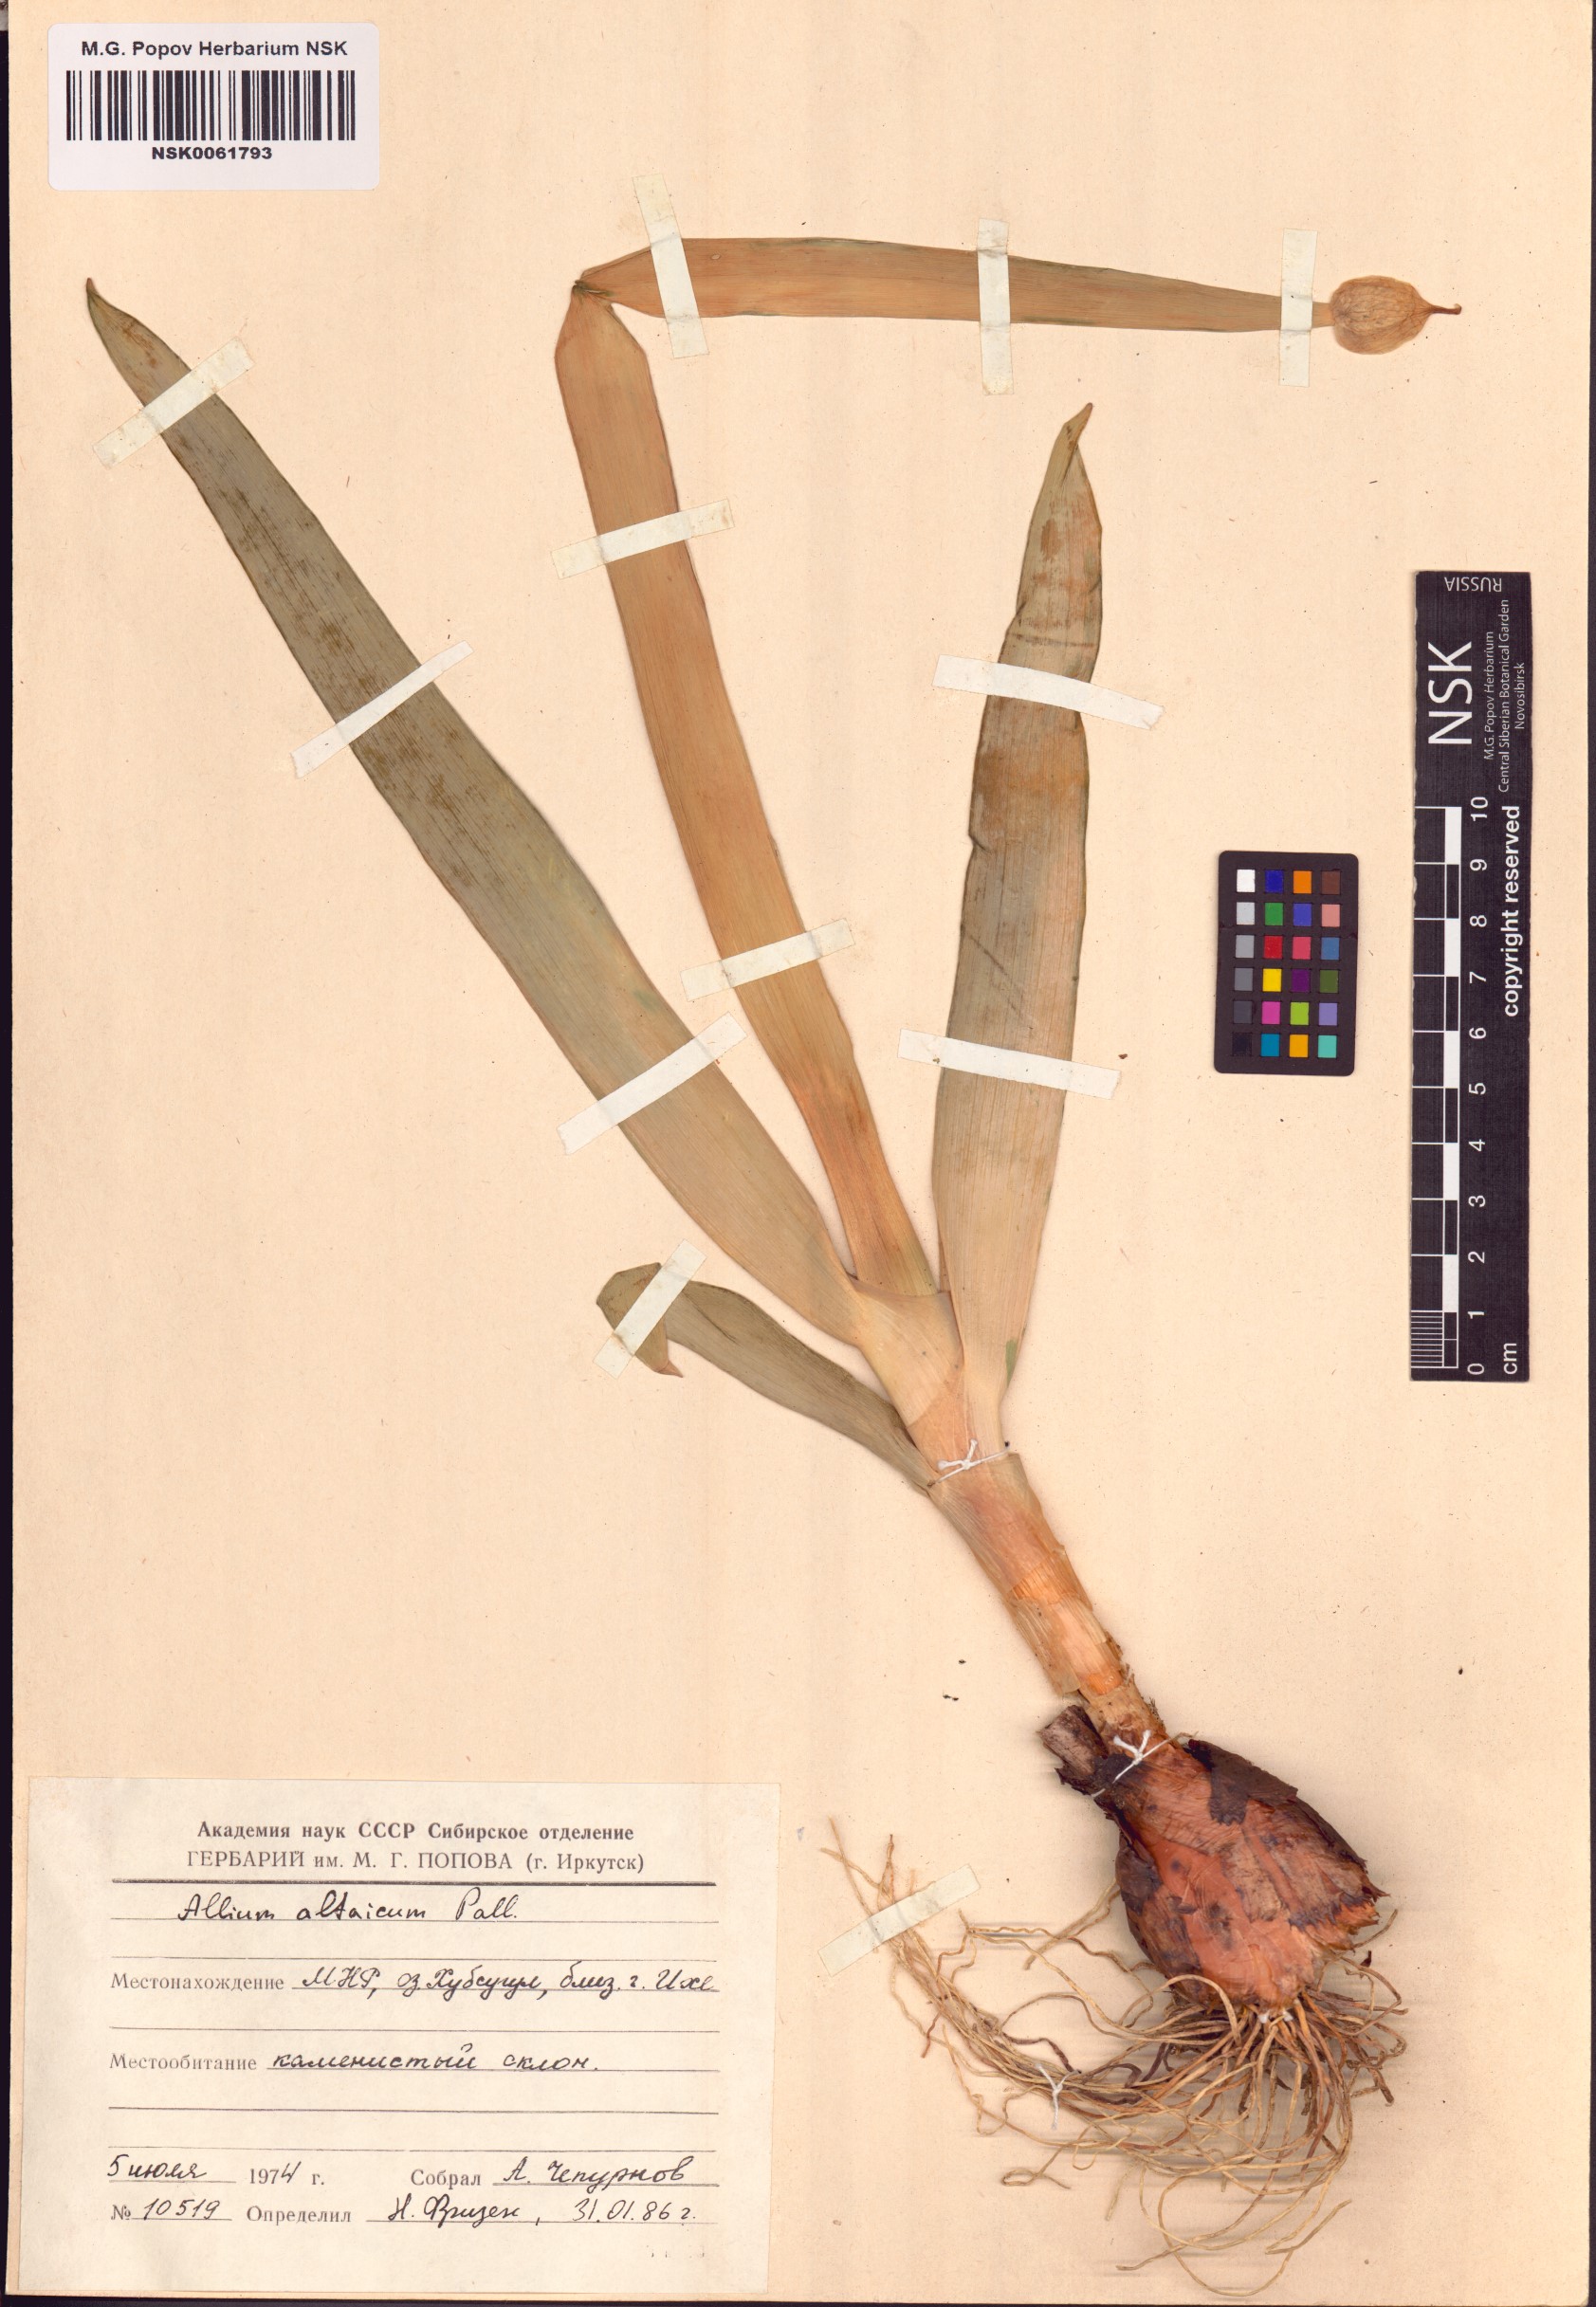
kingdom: Plantae
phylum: Tracheophyta
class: Liliopsida
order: Asparagales
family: Amaryllidaceae
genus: Allium
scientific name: Allium altaicum
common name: Altai onion
